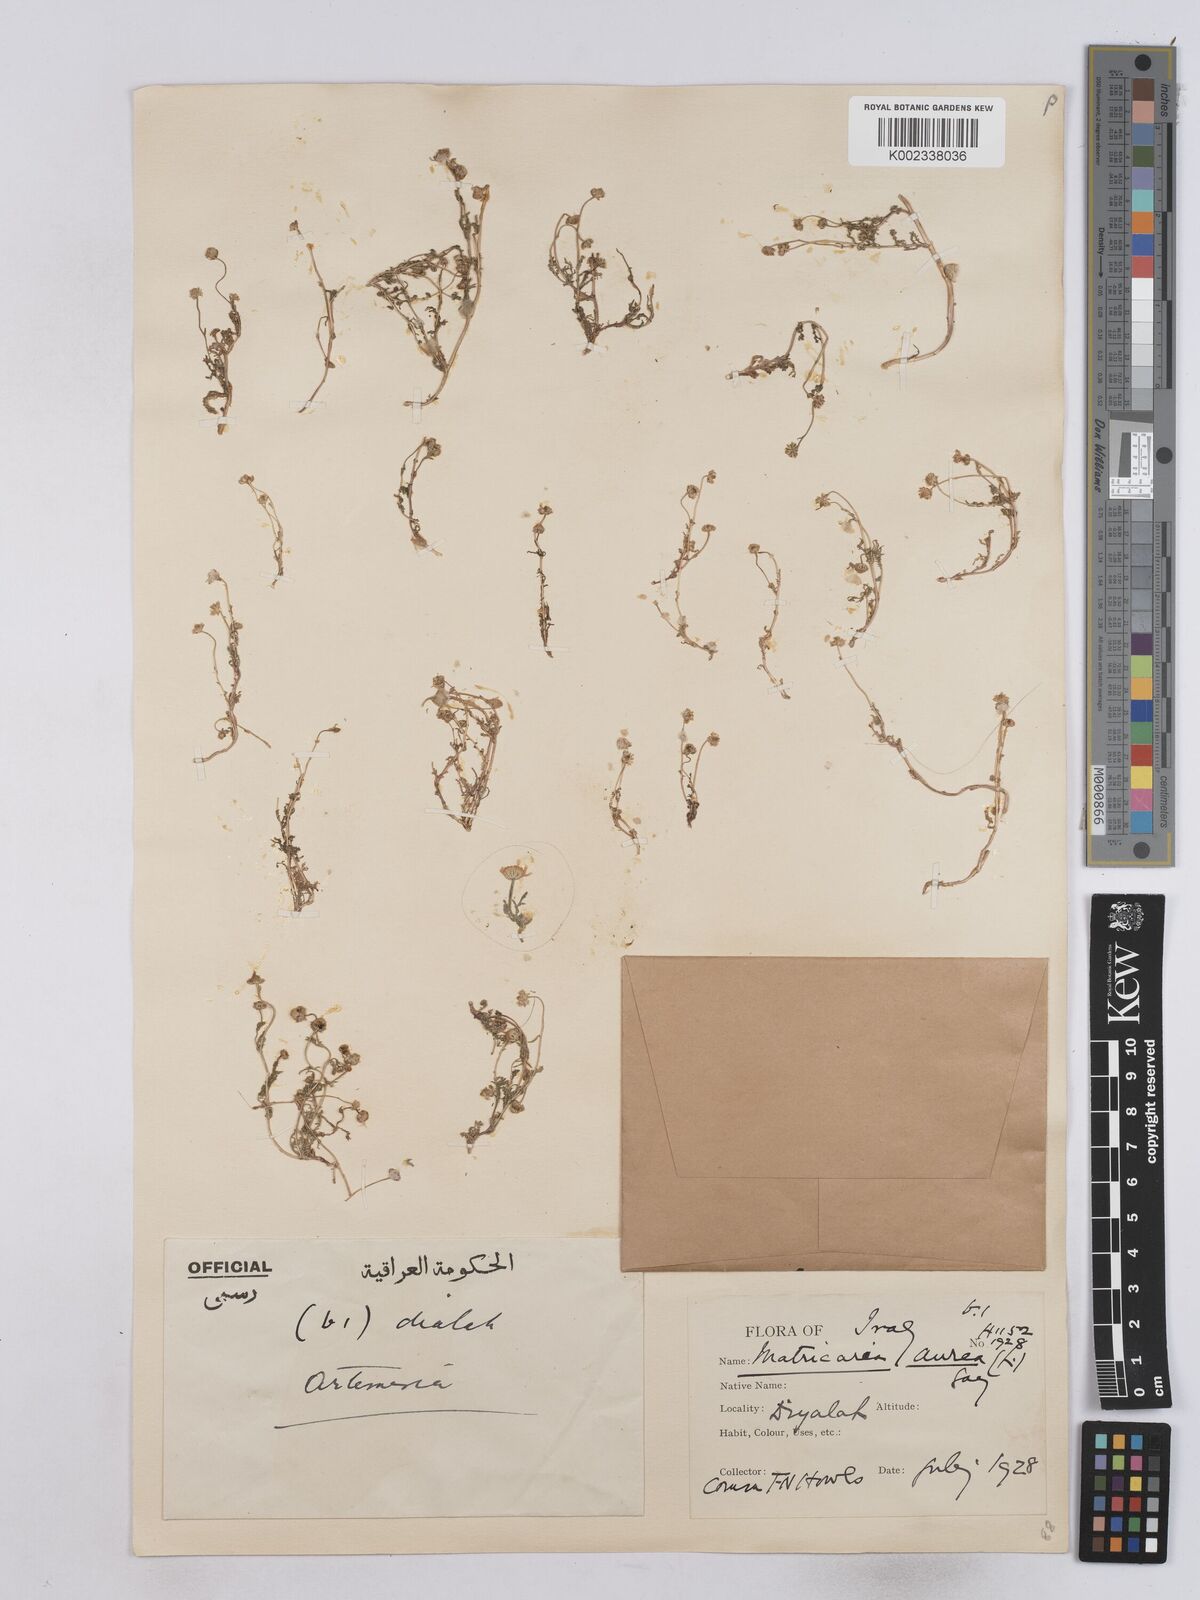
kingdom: Plantae
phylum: Tracheophyta
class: Magnoliopsida
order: Asterales
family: Asteraceae
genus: Matricaria
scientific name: Matricaria aurea
